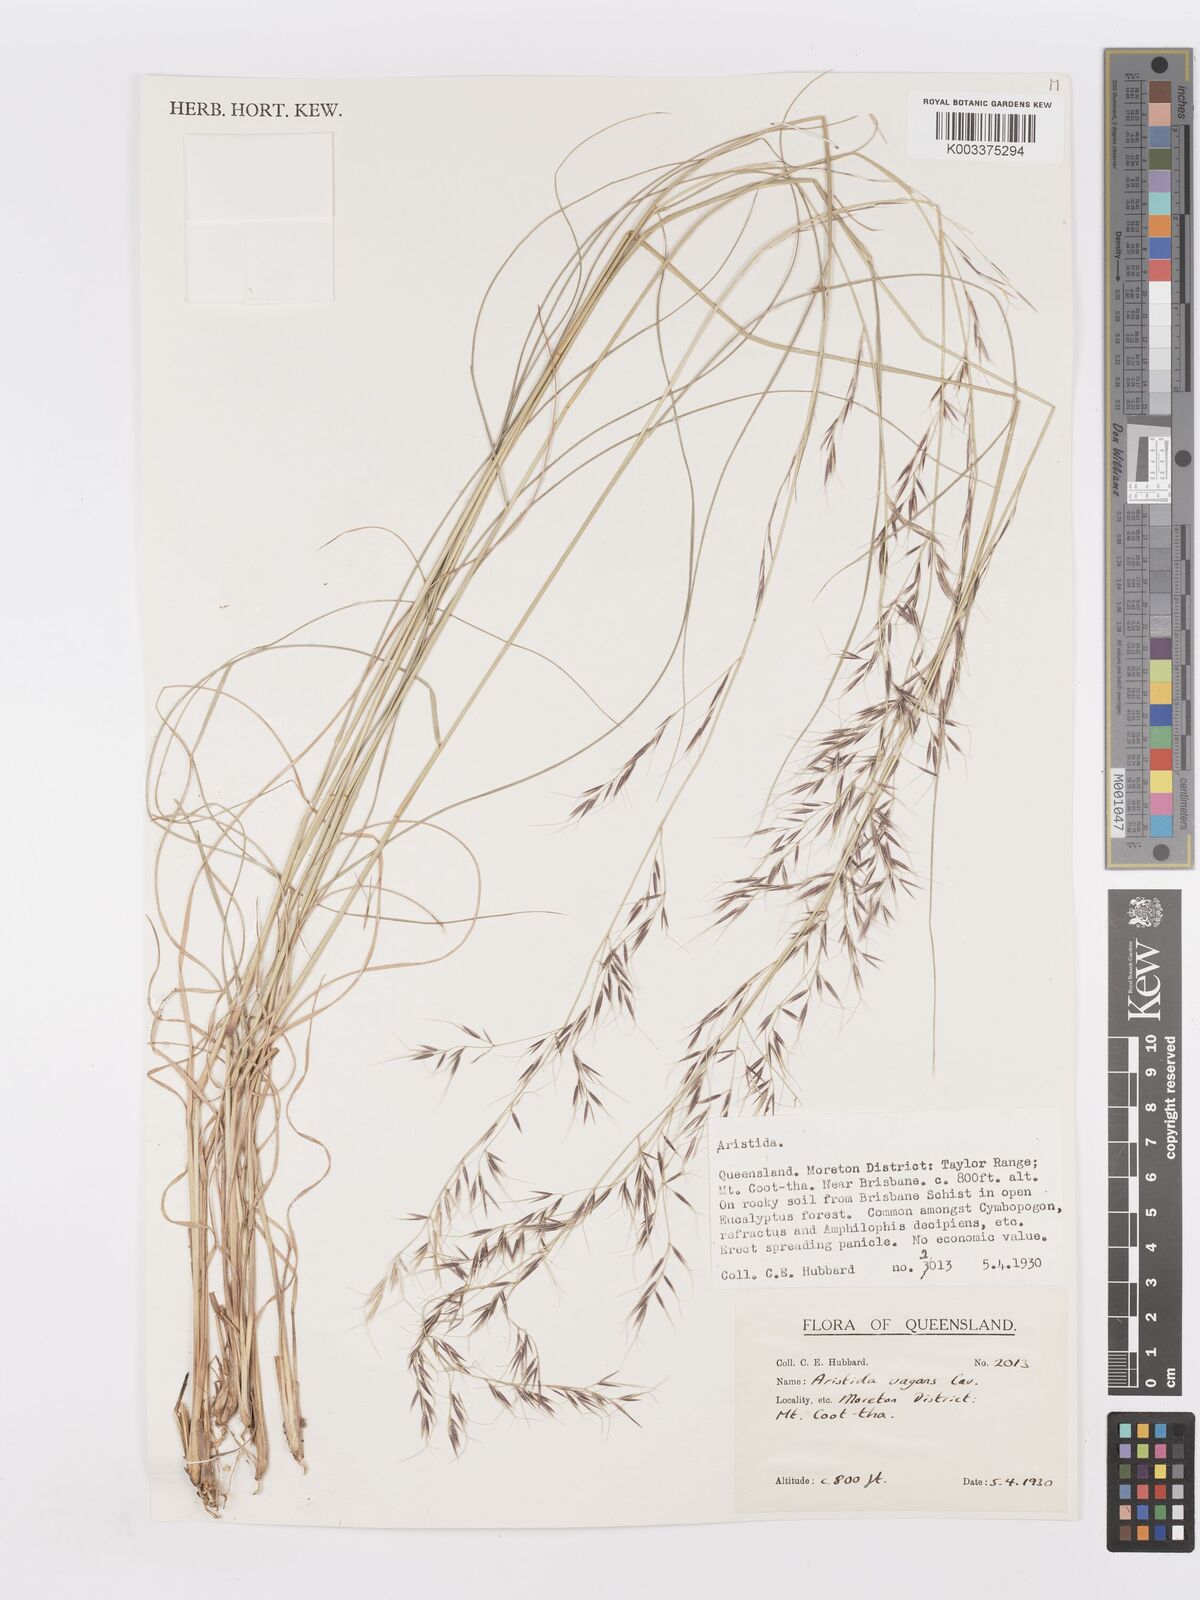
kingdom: Plantae
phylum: Tracheophyta
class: Liliopsida
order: Poales
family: Poaceae
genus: Aristida
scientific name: Aristida vagans
